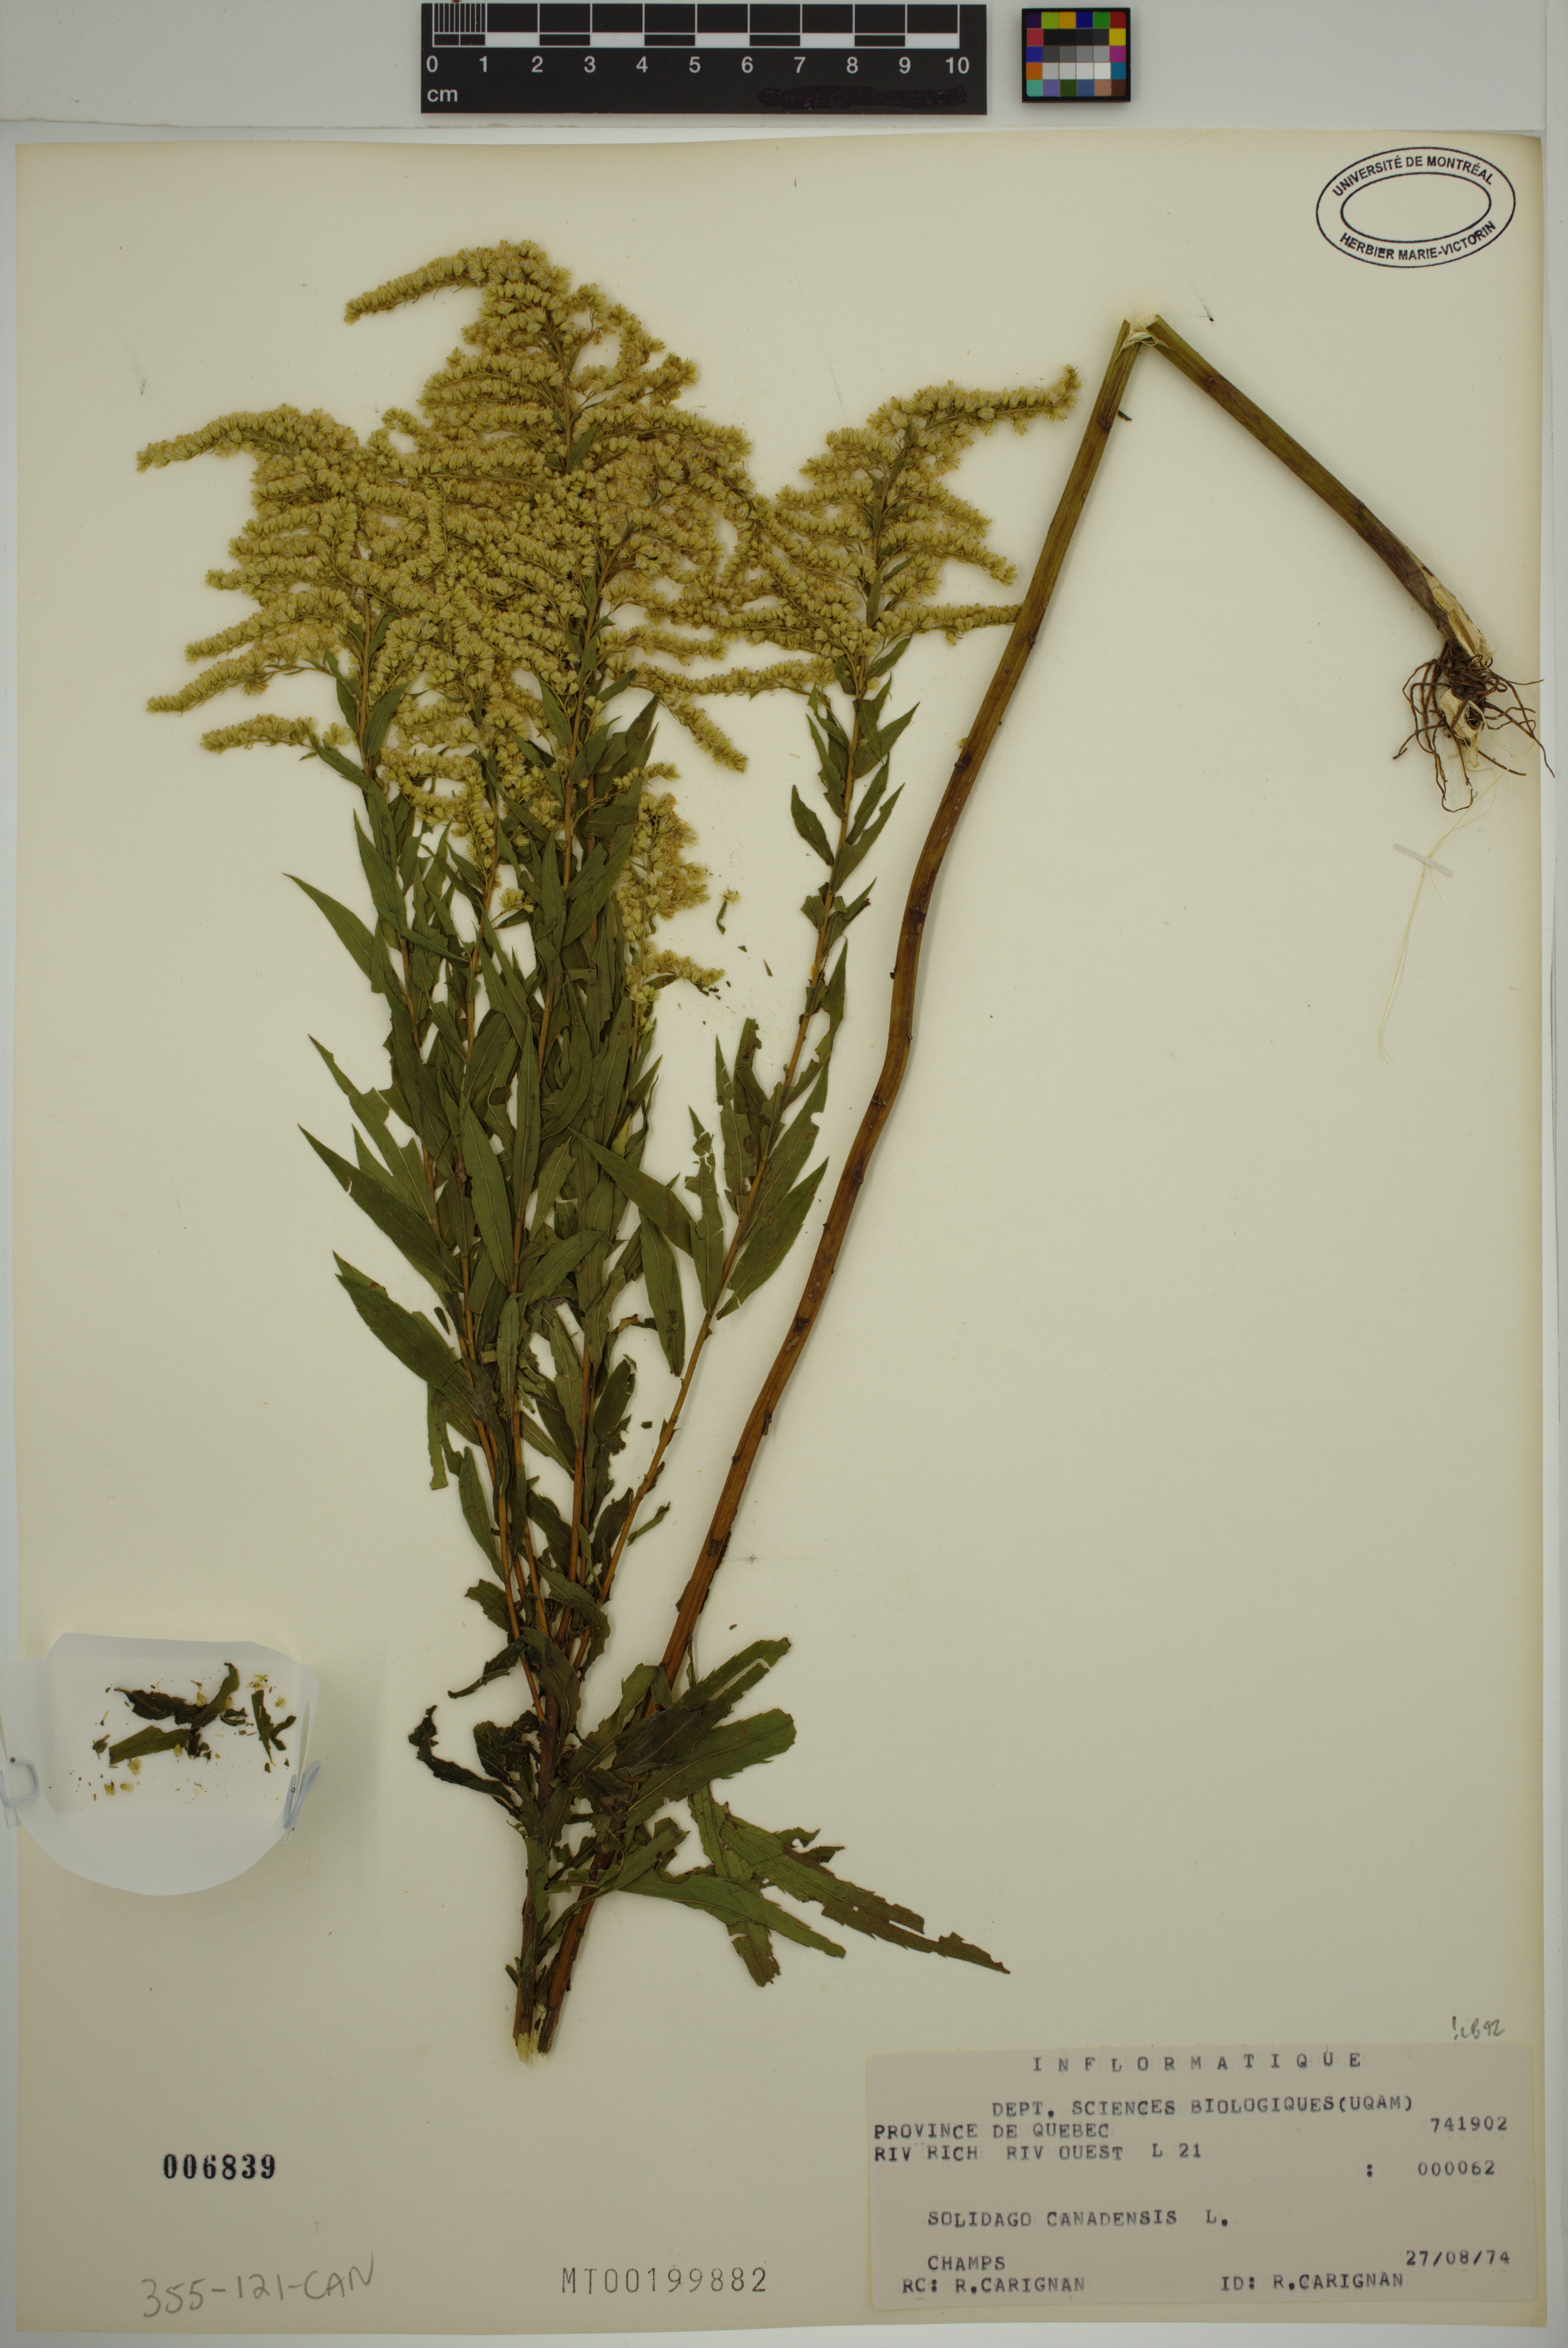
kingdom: Plantae
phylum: Tracheophyta
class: Magnoliopsida
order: Asterales
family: Asteraceae
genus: Solidago
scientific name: Solidago canadensis
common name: Canada goldenrod
